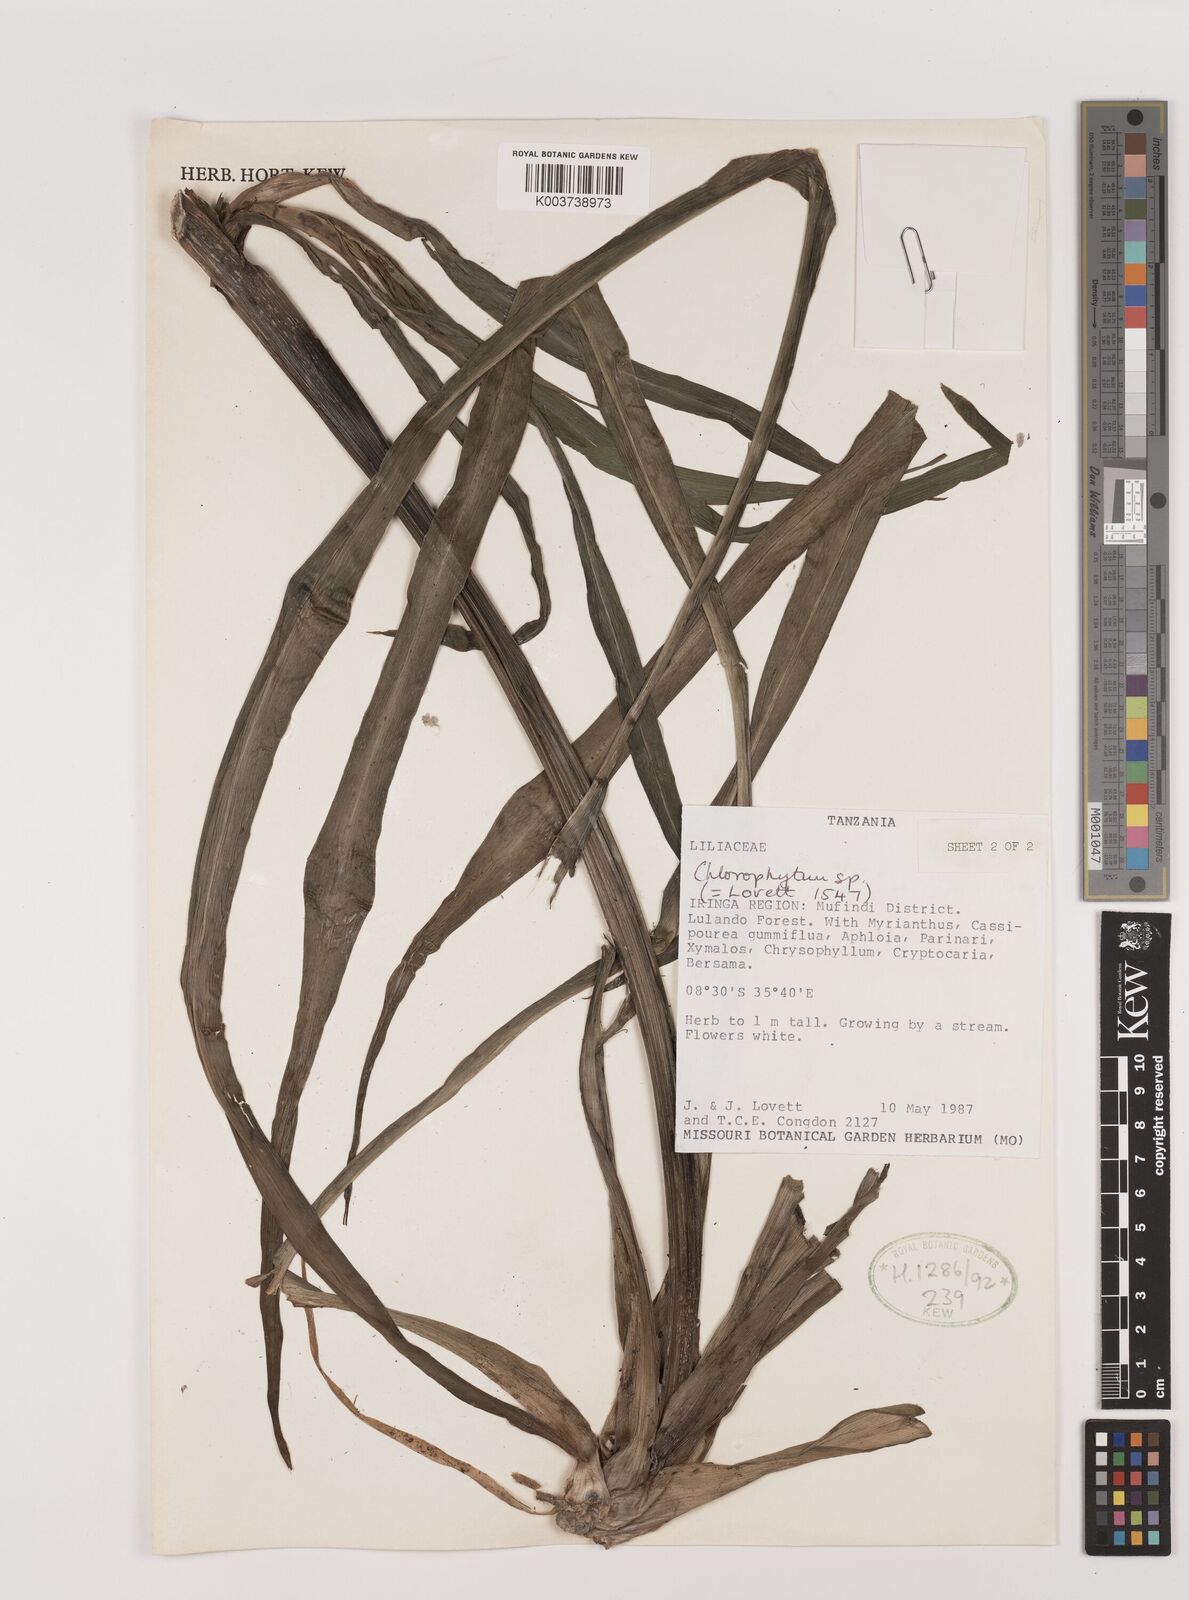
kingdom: Plantae
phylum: Tracheophyta
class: Liliopsida
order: Asparagales
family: Asparagaceae
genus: Chlorophytum
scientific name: Chlorophytum comosum
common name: Spider plant
